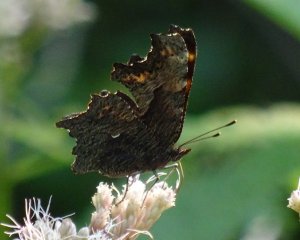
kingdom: Animalia
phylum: Arthropoda
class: Insecta
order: Lepidoptera
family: Nymphalidae
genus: Polygonia
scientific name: Polygonia progne
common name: Gray Comma
